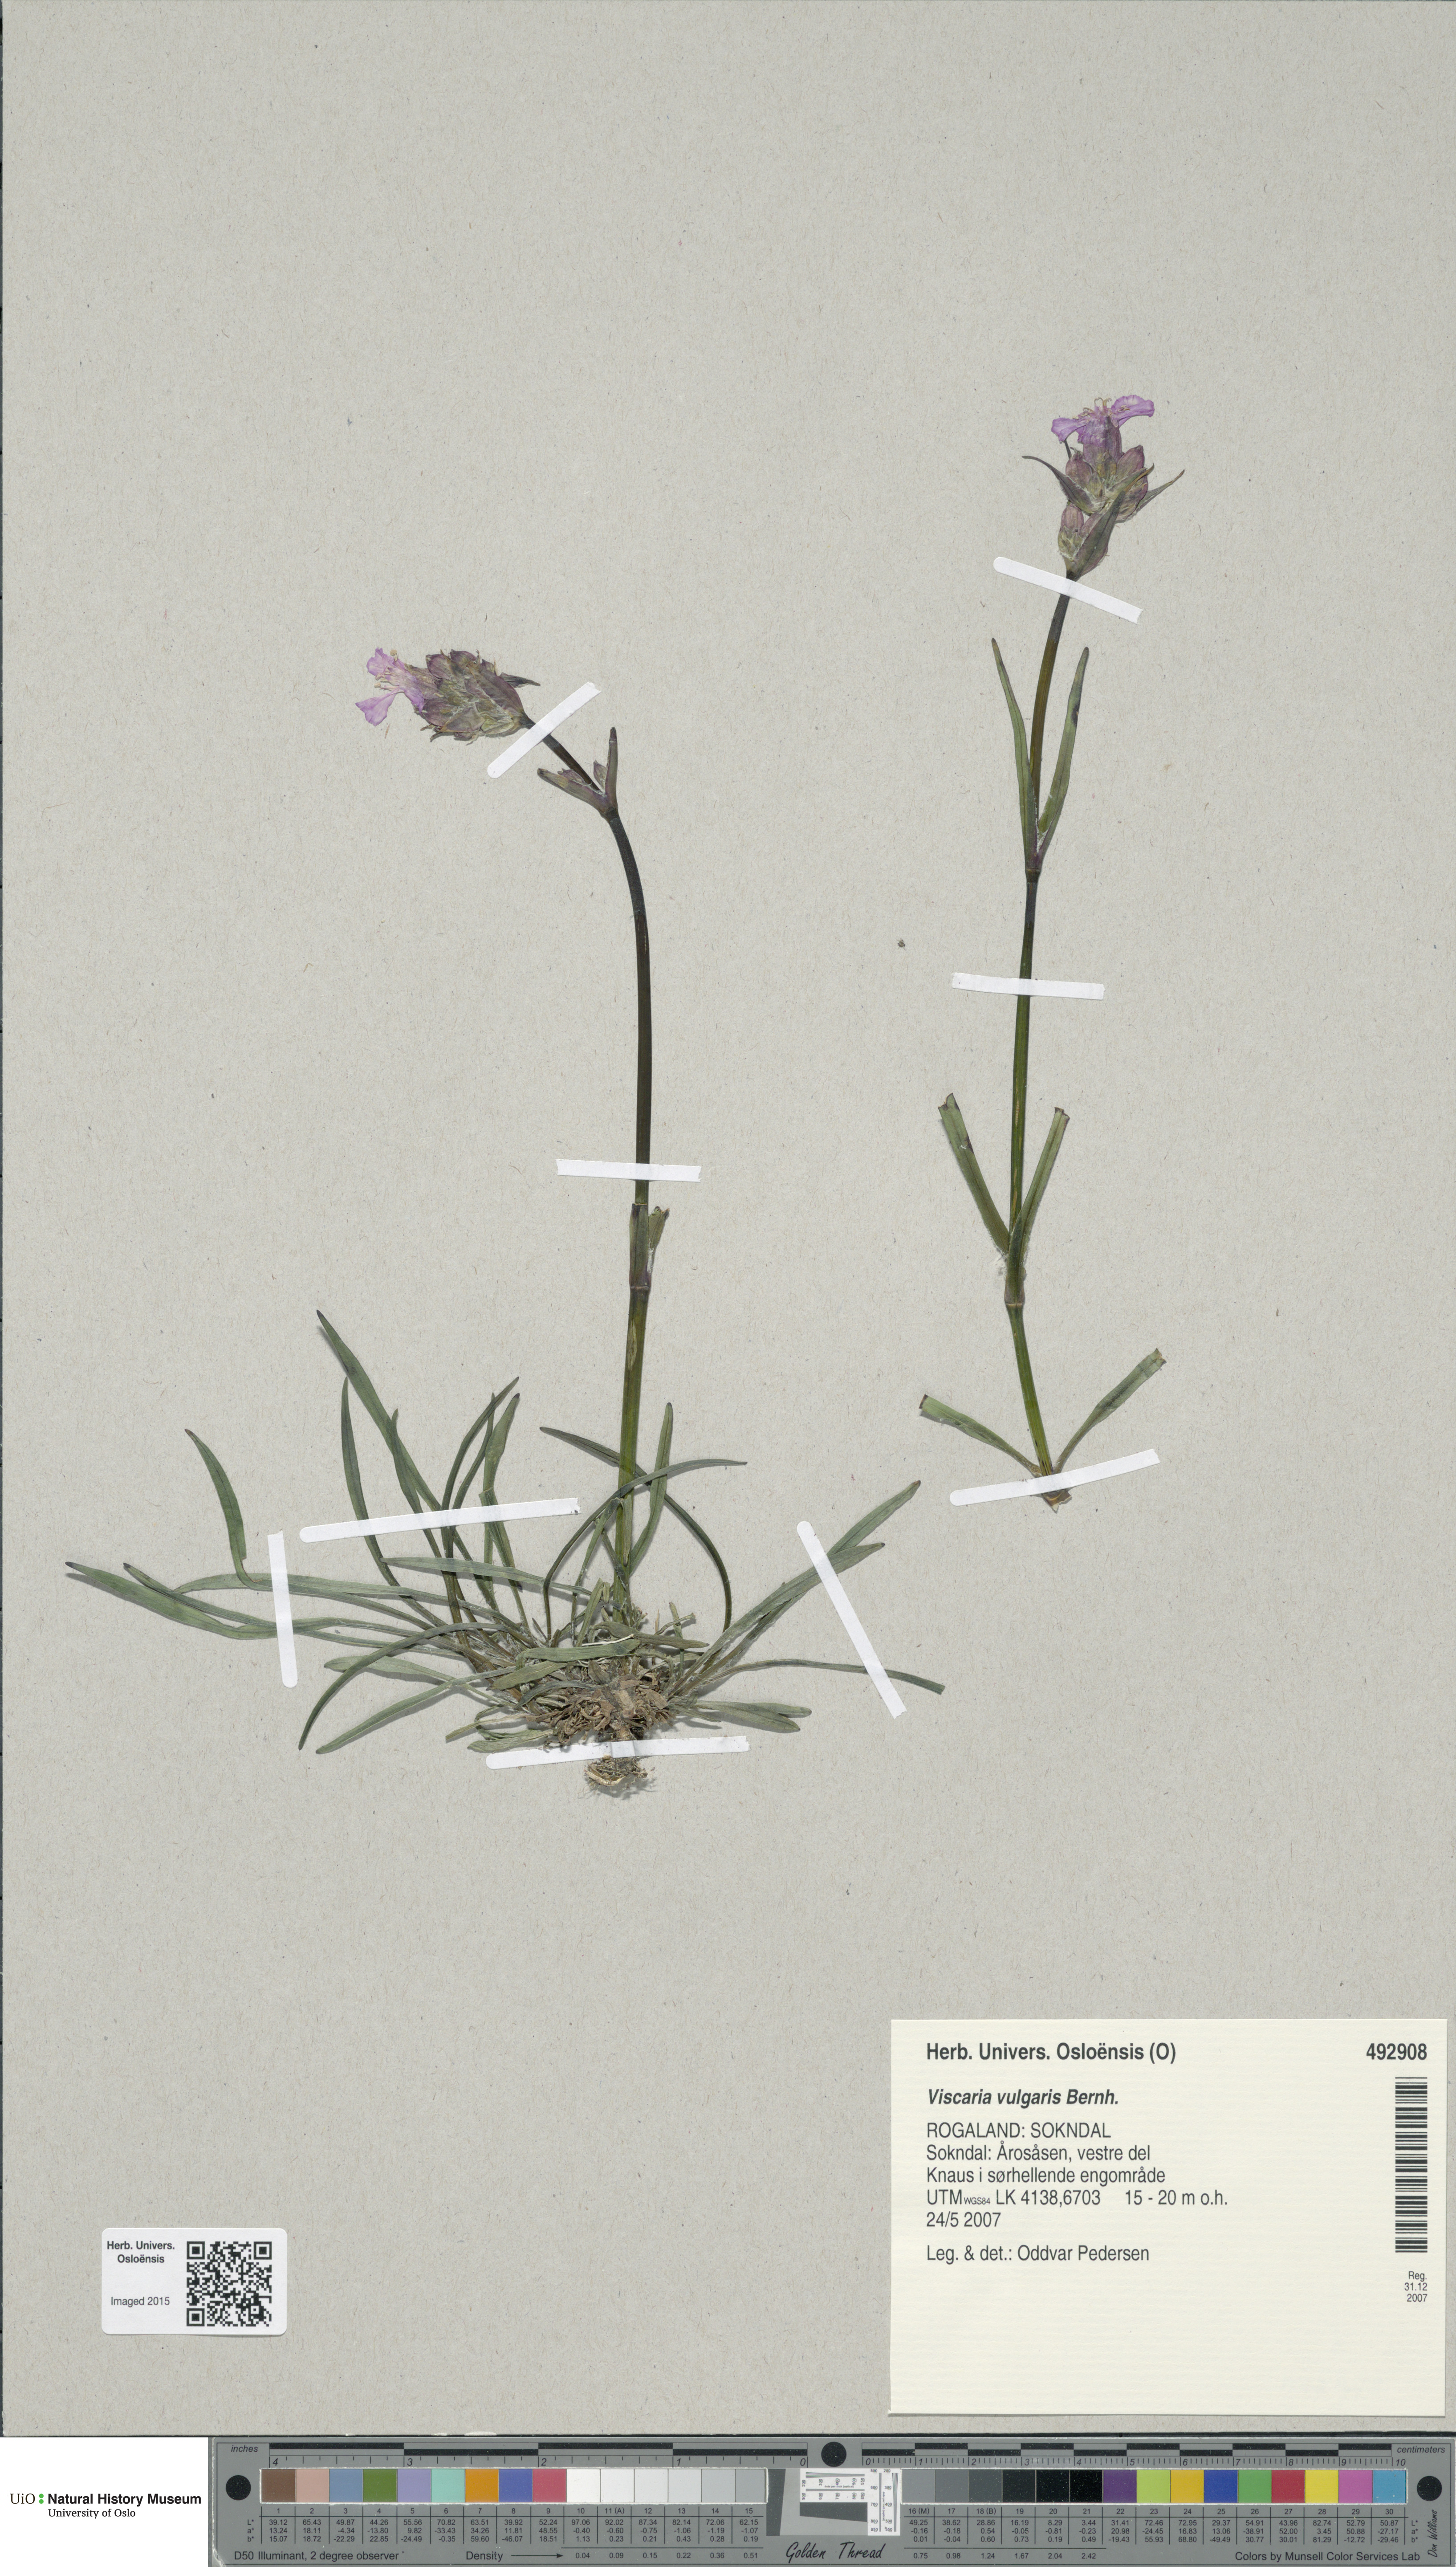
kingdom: Plantae
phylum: Tracheophyta
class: Magnoliopsida
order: Caryophyllales
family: Caryophyllaceae
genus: Viscaria
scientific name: Viscaria vulgaris
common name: Clammy campion
